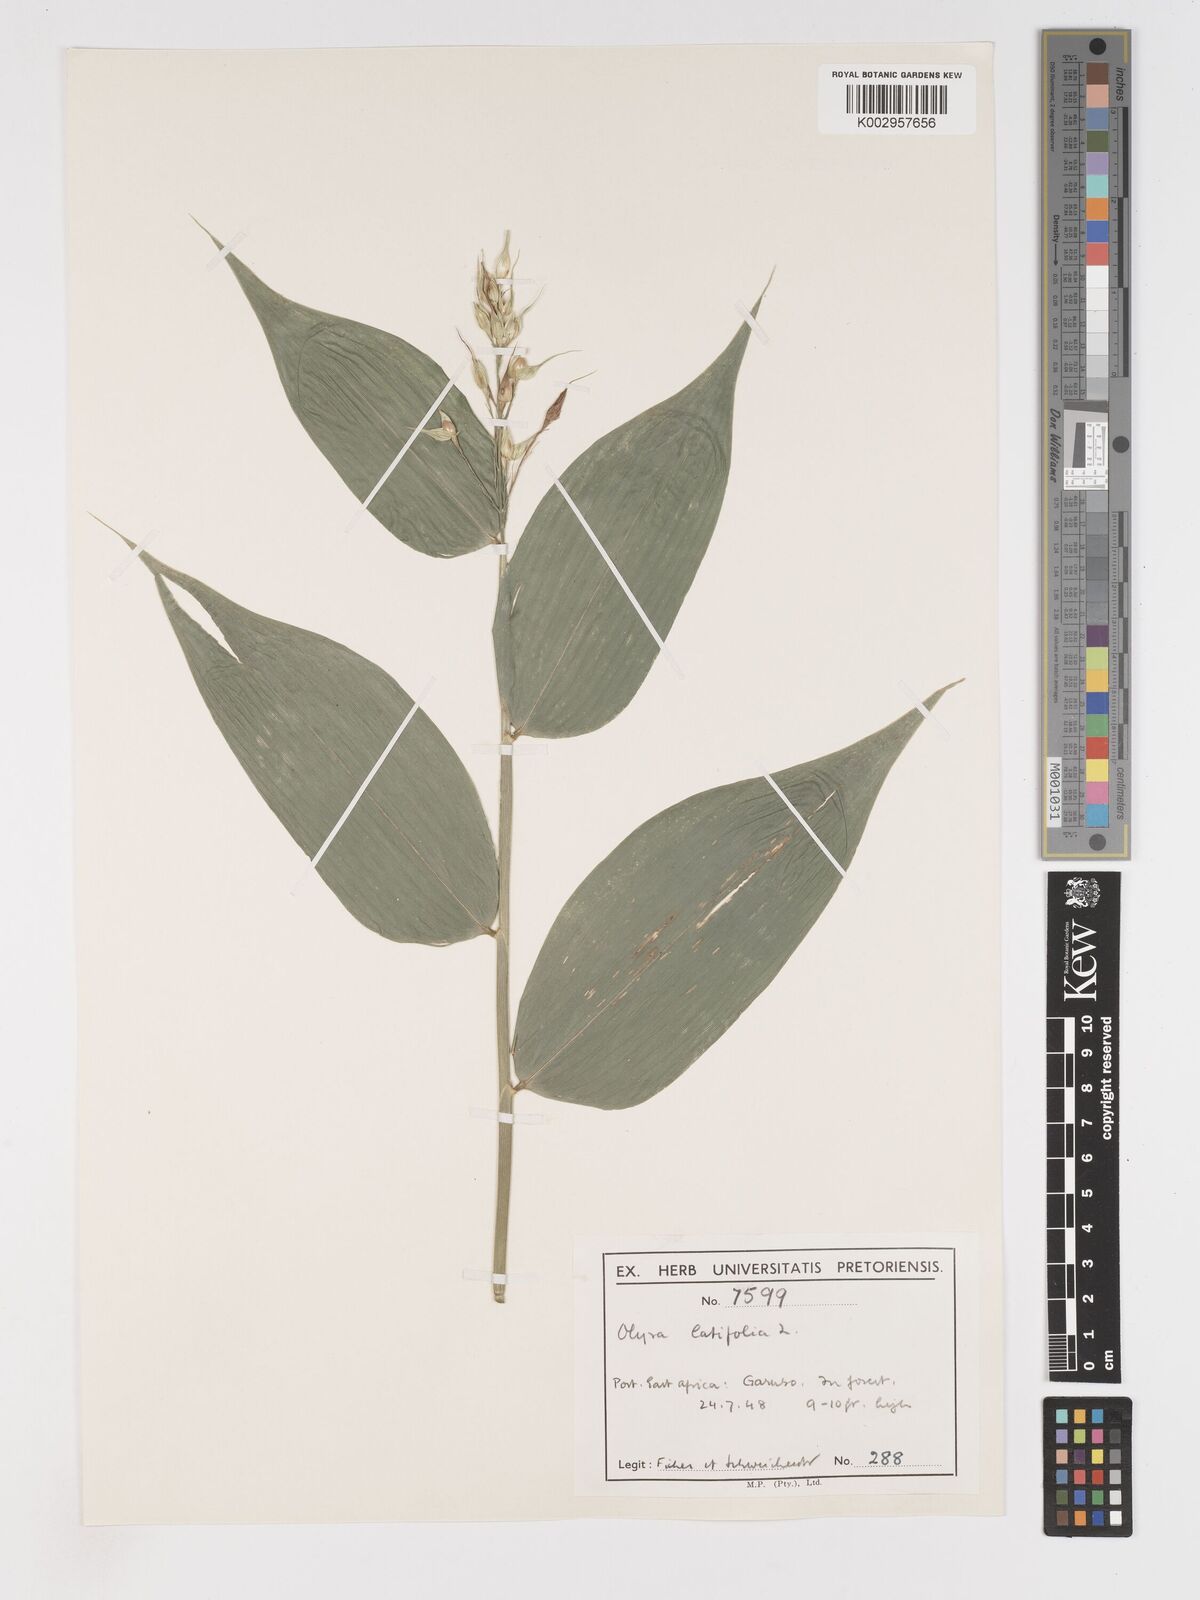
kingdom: Plantae
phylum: Tracheophyta
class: Liliopsida
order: Poales
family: Poaceae
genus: Olyra
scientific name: Olyra latifolia
